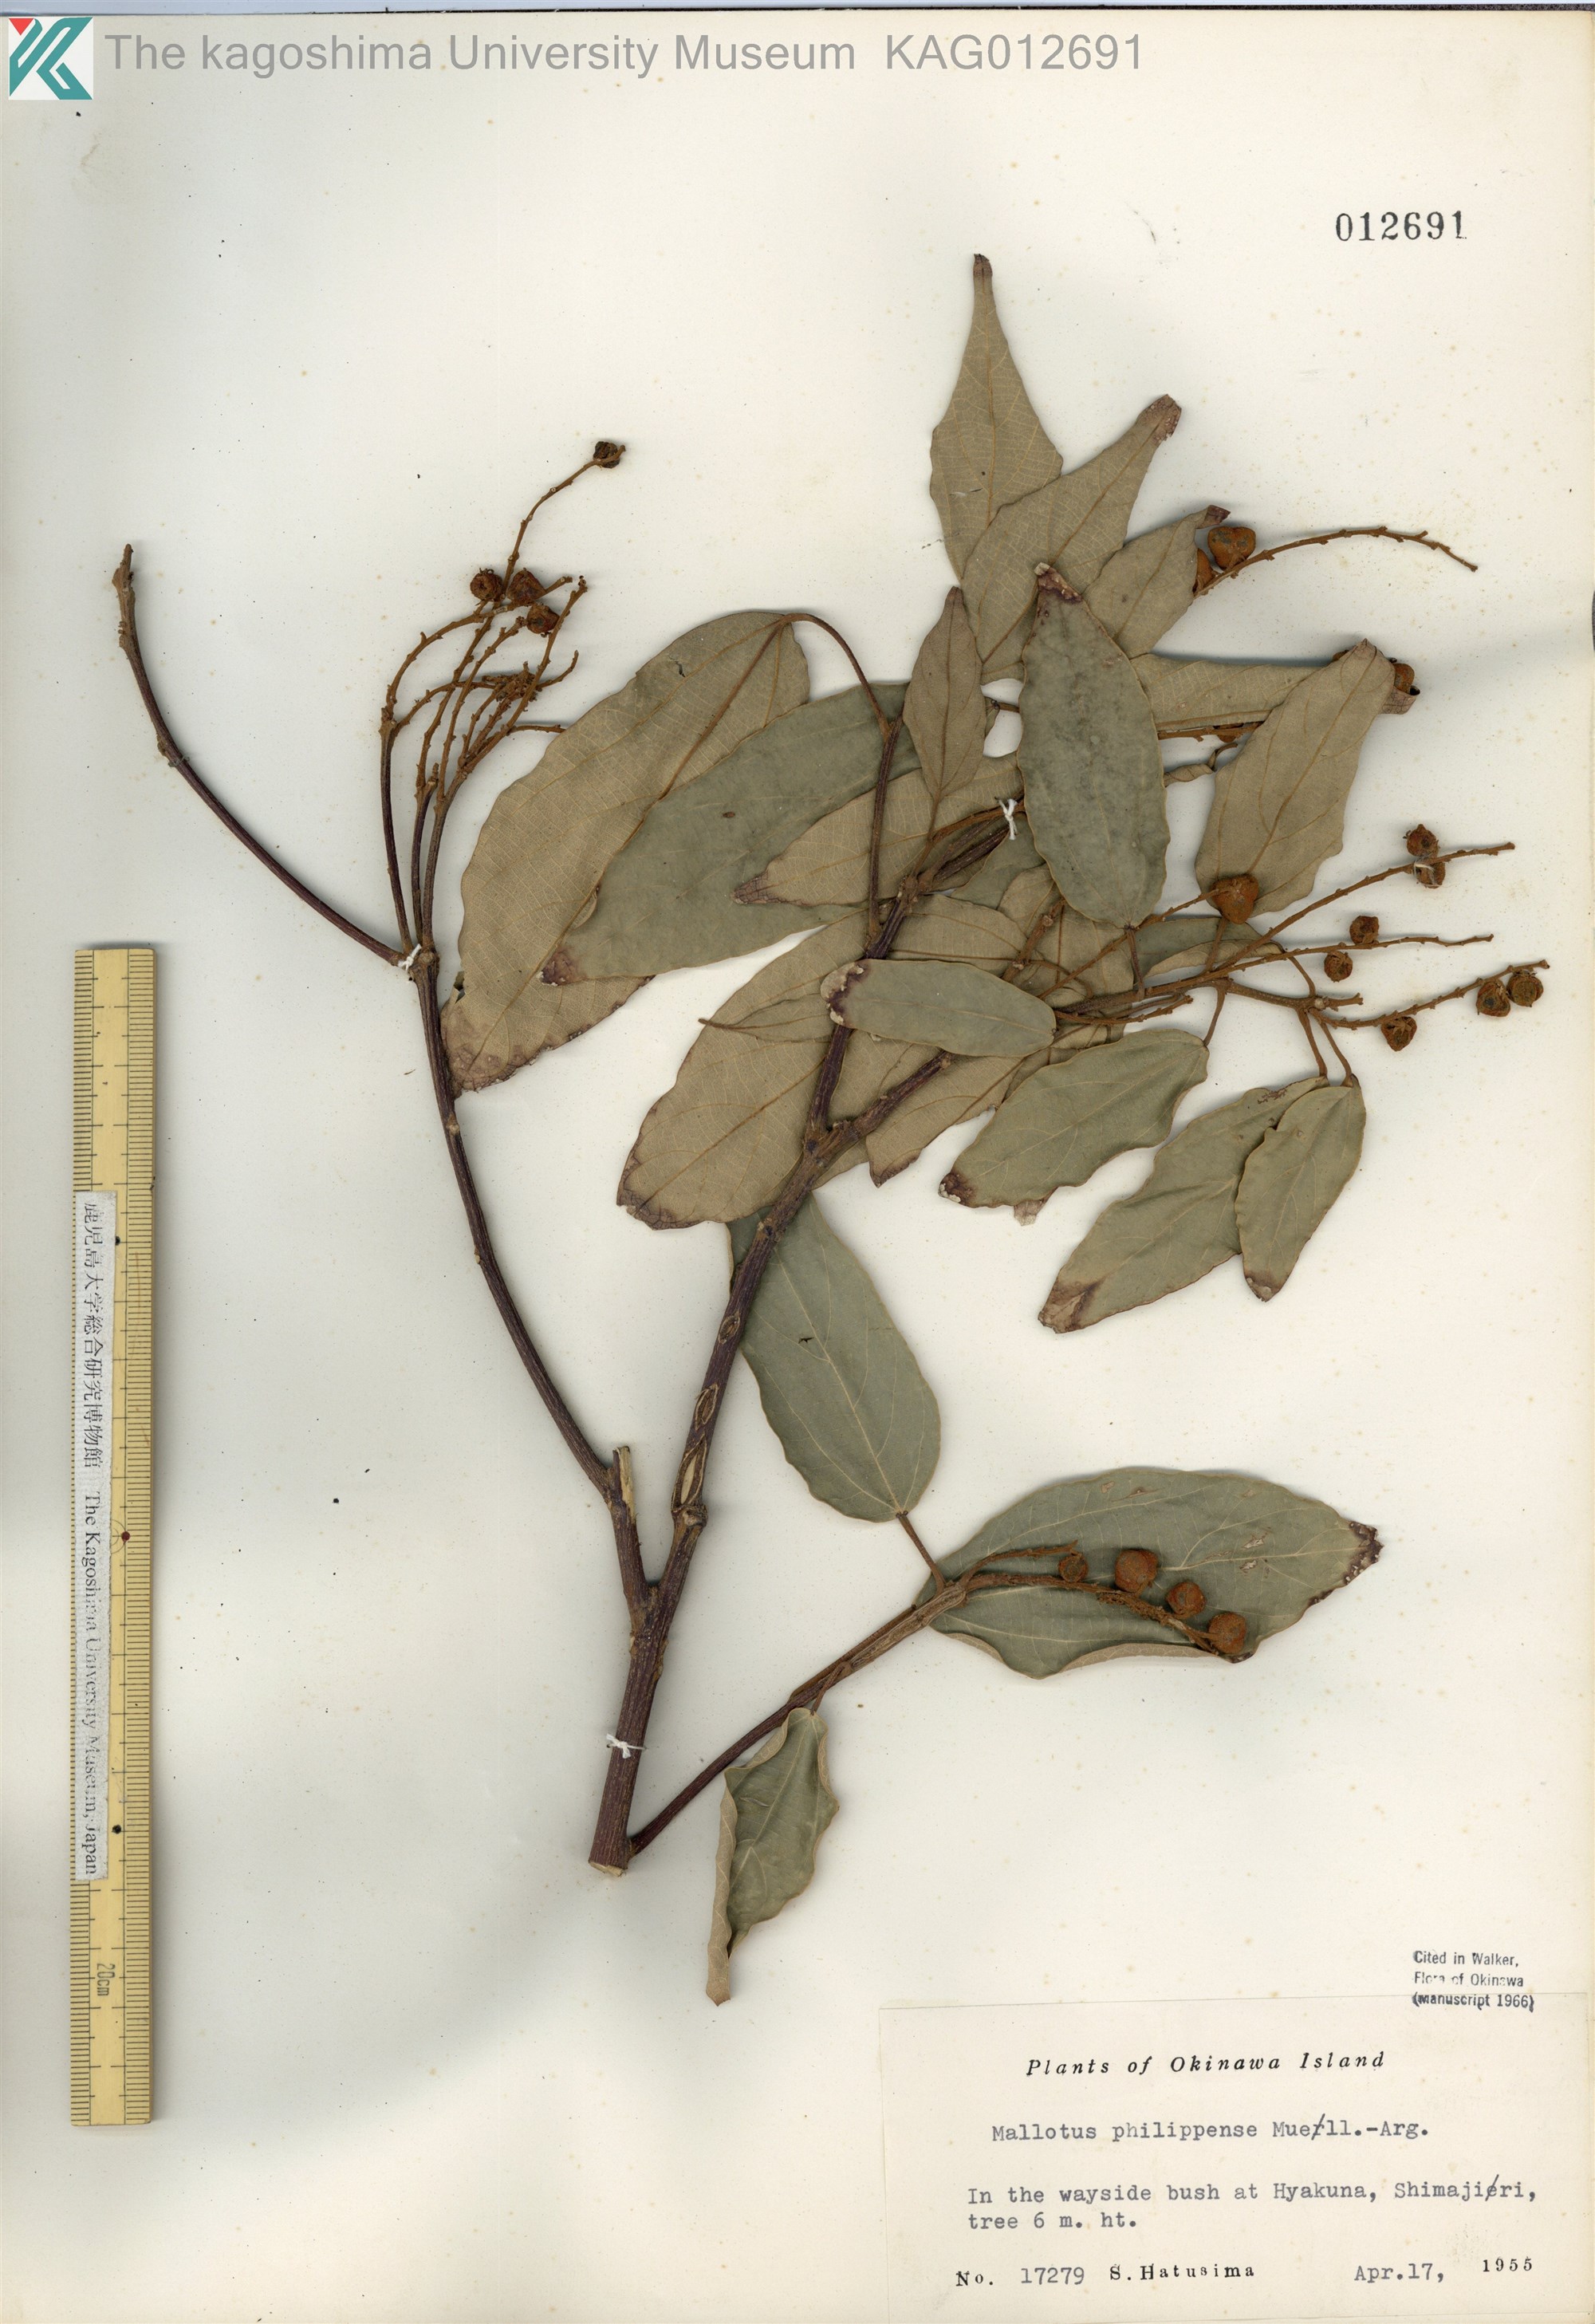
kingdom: Plantae
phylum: Tracheophyta
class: Magnoliopsida
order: Malpighiales
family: Euphorbiaceae
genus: Mallotus
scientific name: Mallotus philippensis
